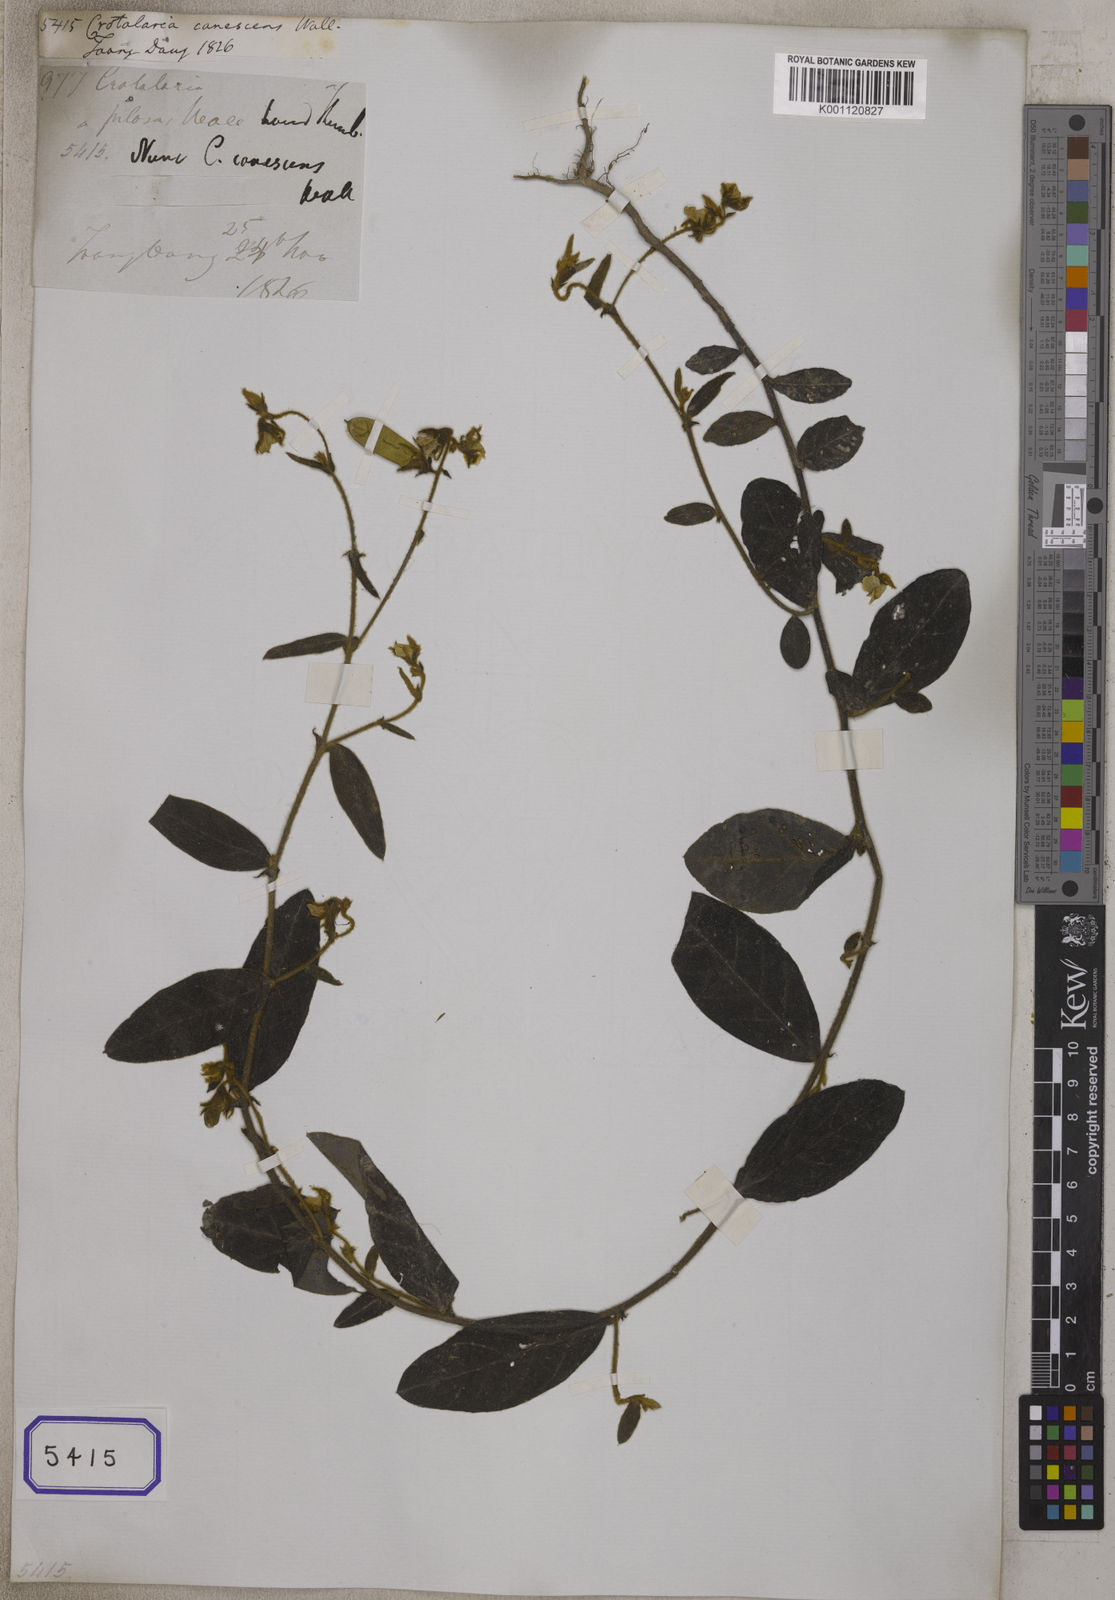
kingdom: Plantae
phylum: Tracheophyta
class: Magnoliopsida
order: Fabales
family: Fabaceae
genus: Crotalaria
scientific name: Crotalaria lejoloba
